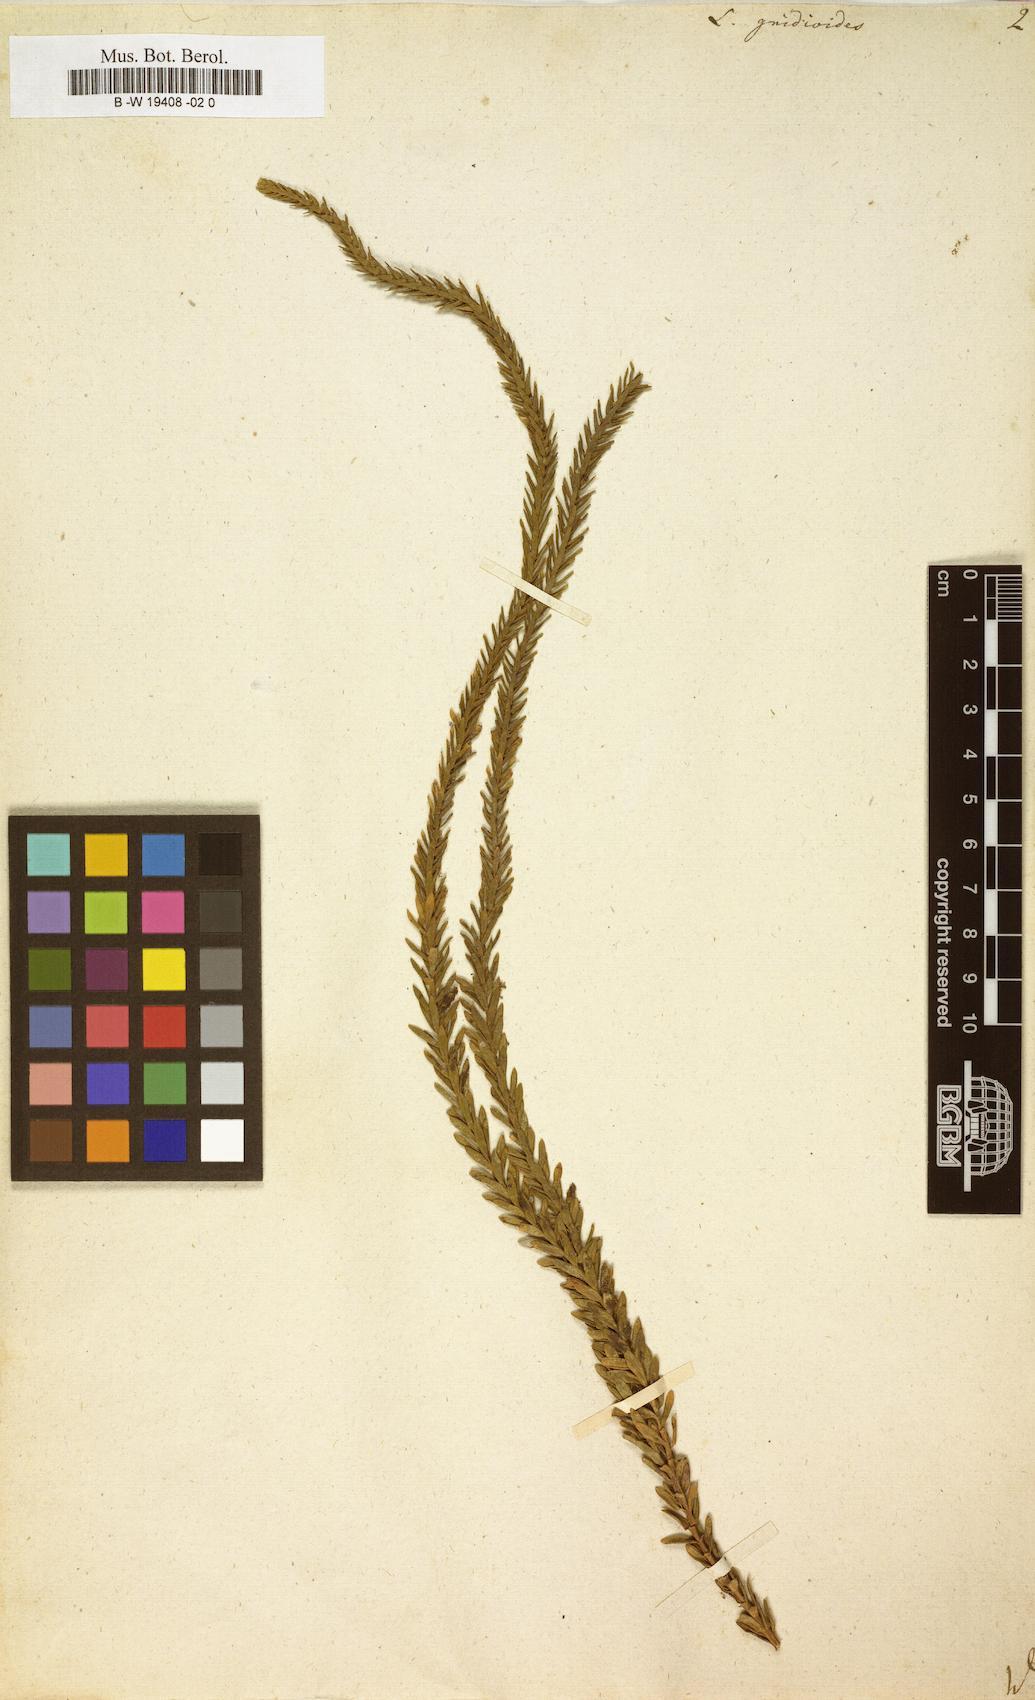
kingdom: Plantae
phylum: Tracheophyta
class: Lycopodiopsida
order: Lycopodiales
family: Lycopodiaceae
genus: Phlegmariurus
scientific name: Phlegmariurus
